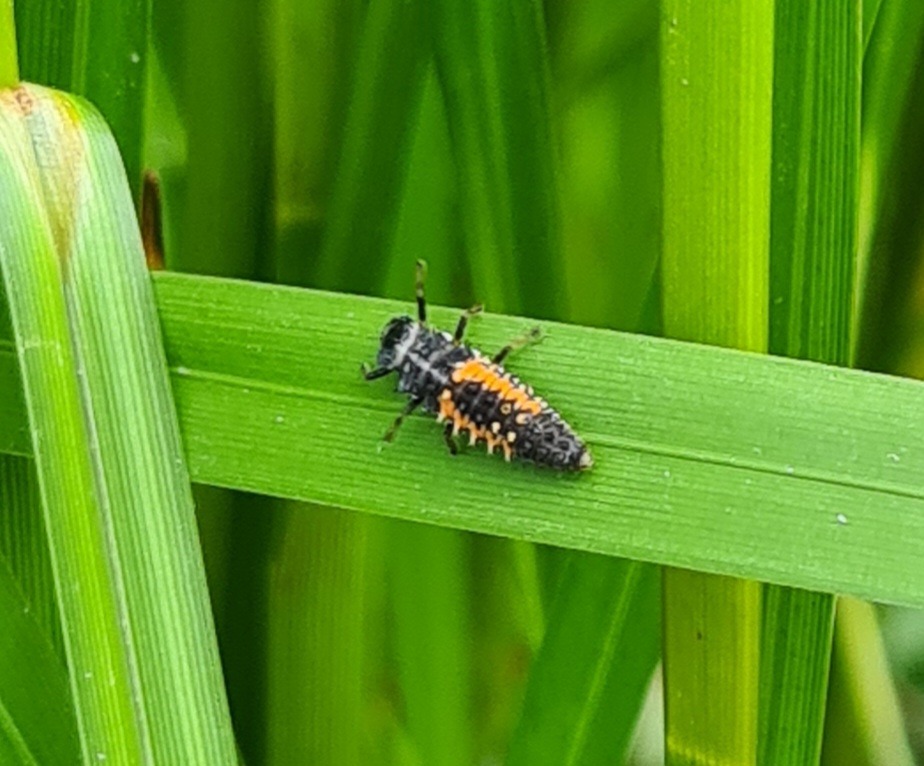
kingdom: Animalia
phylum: Arthropoda
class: Insecta
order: Coleoptera
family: Coccinellidae
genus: Harmonia
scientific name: Harmonia axyridis
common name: Harlekinmariehøne
